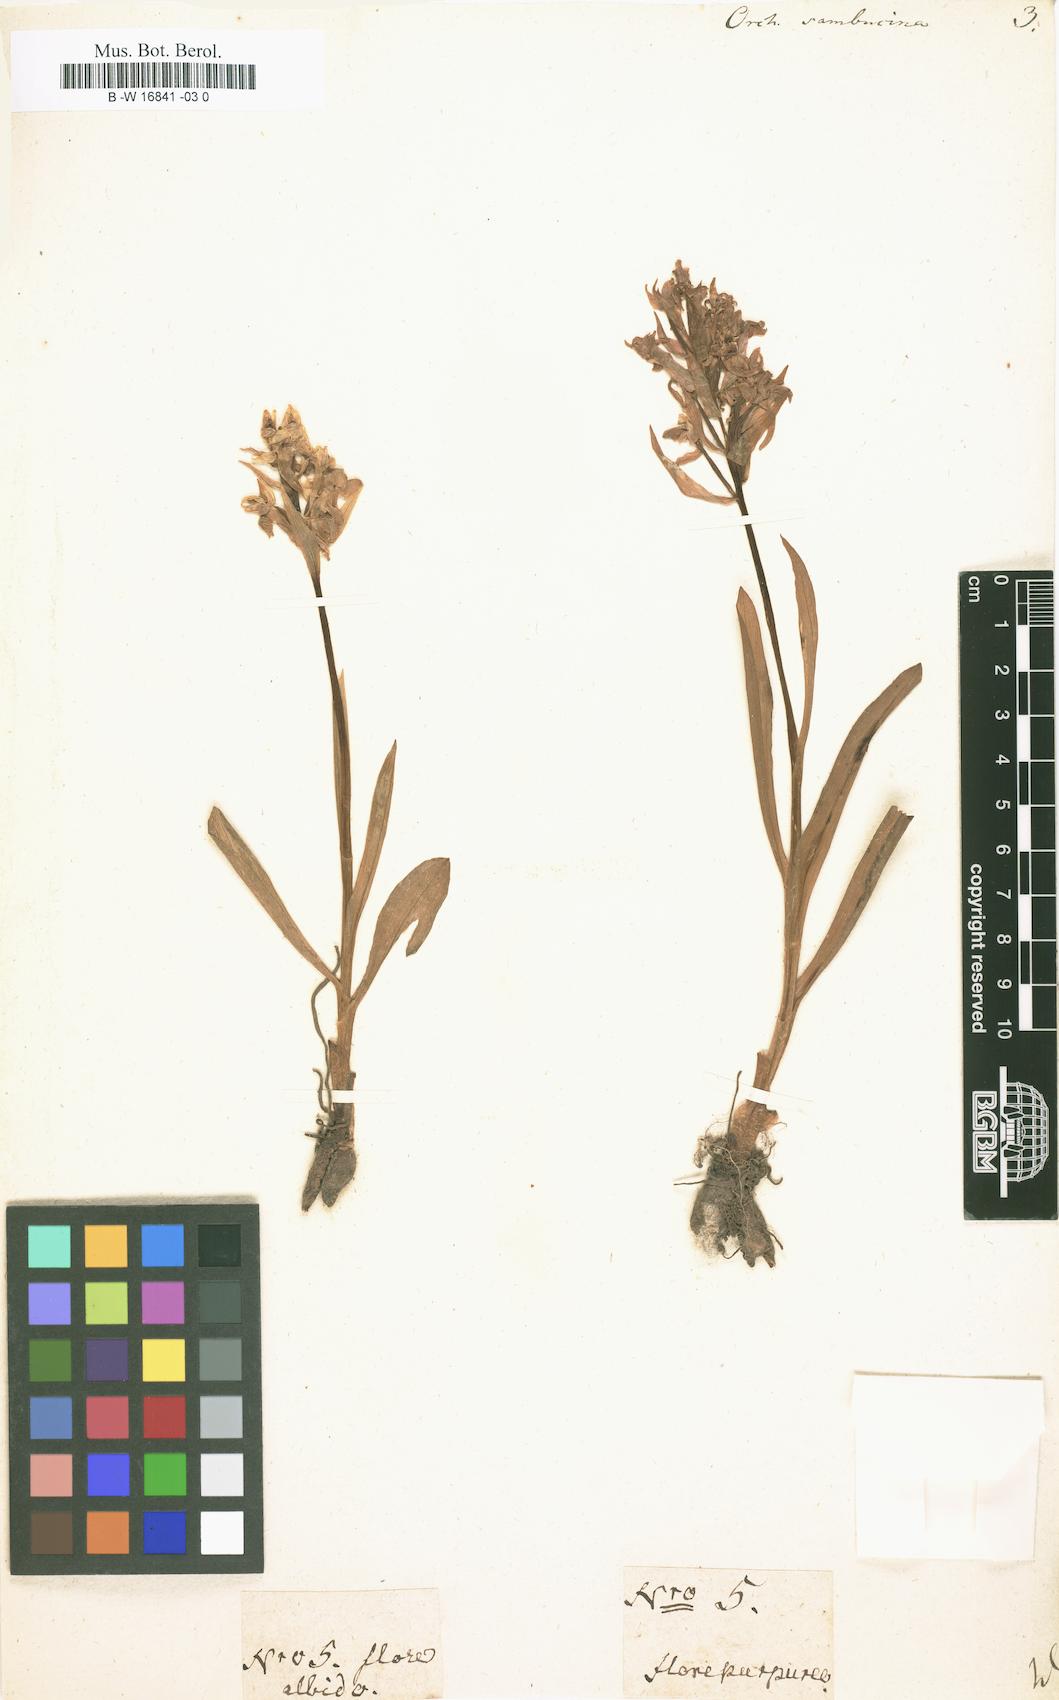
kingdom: Plantae
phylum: Tracheophyta
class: Liliopsida
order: Asparagales
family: Orchidaceae
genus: Dactylorhiza
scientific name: Dactylorhiza sambucina
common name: Elder-flowered orchid
